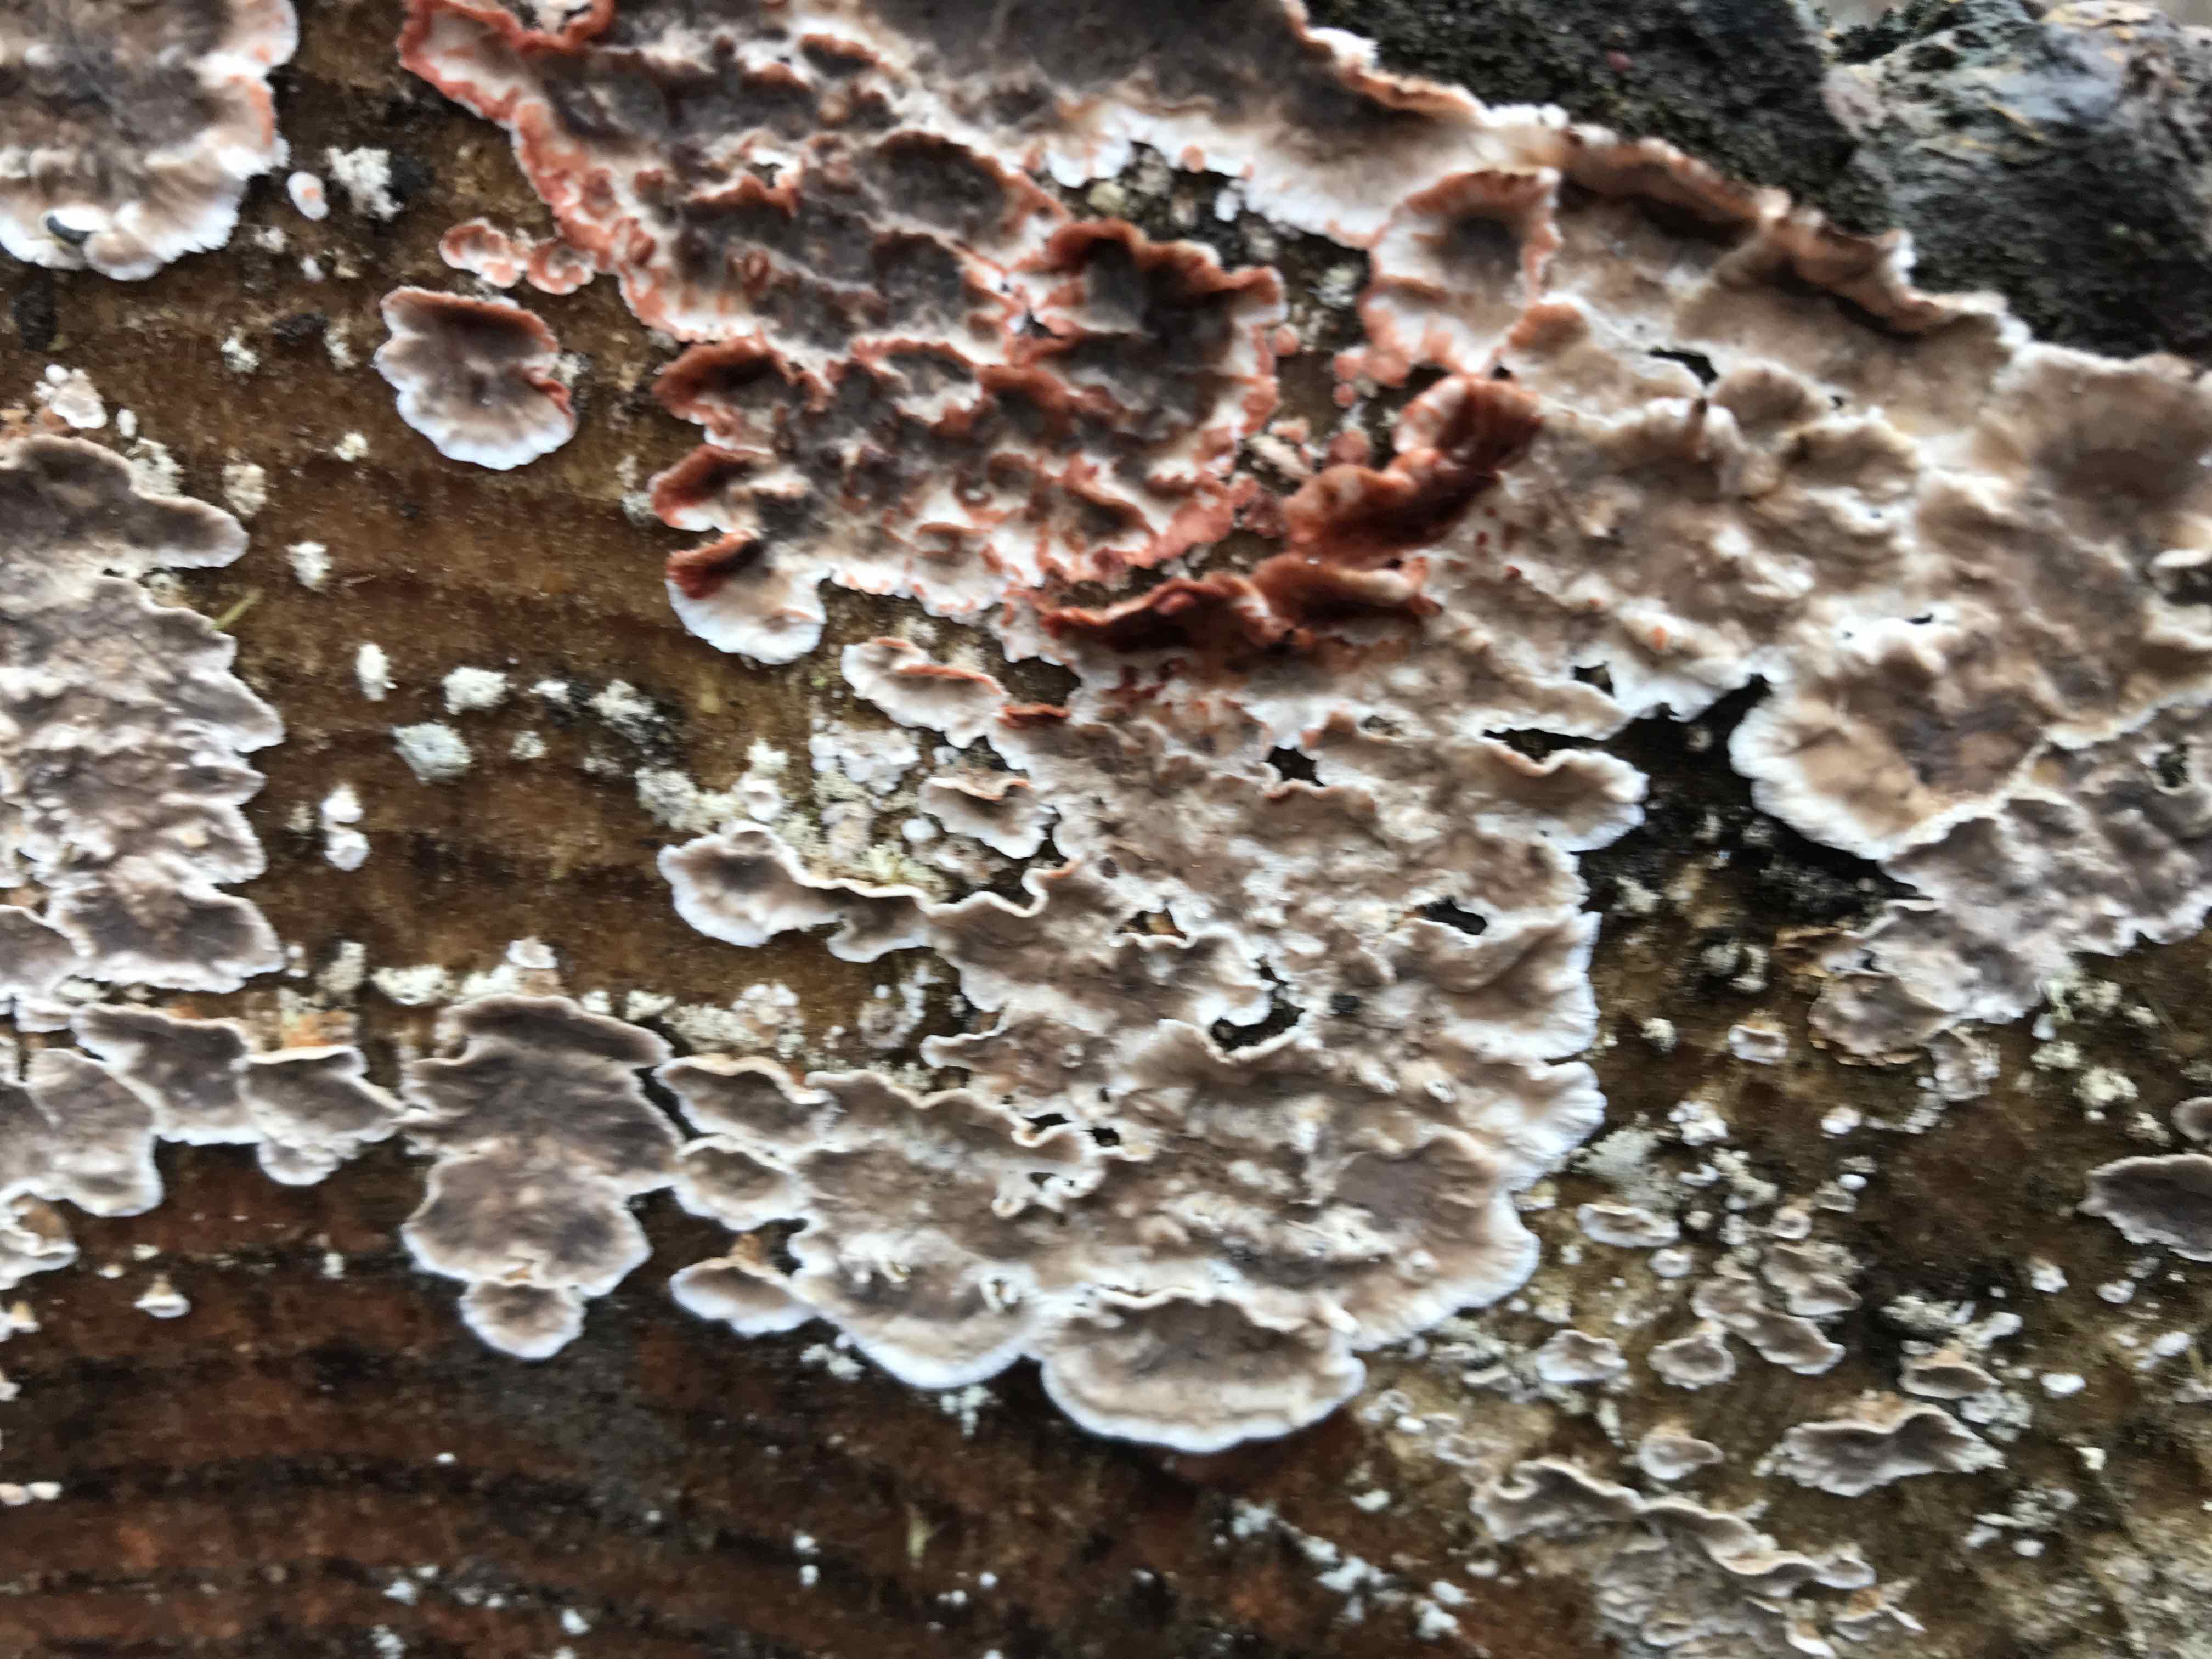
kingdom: Fungi
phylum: Basidiomycota
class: Agaricomycetes
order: Russulales
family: Stereaceae
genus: Stereum
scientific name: Stereum sanguinolentum
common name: blødende lædersvamp
